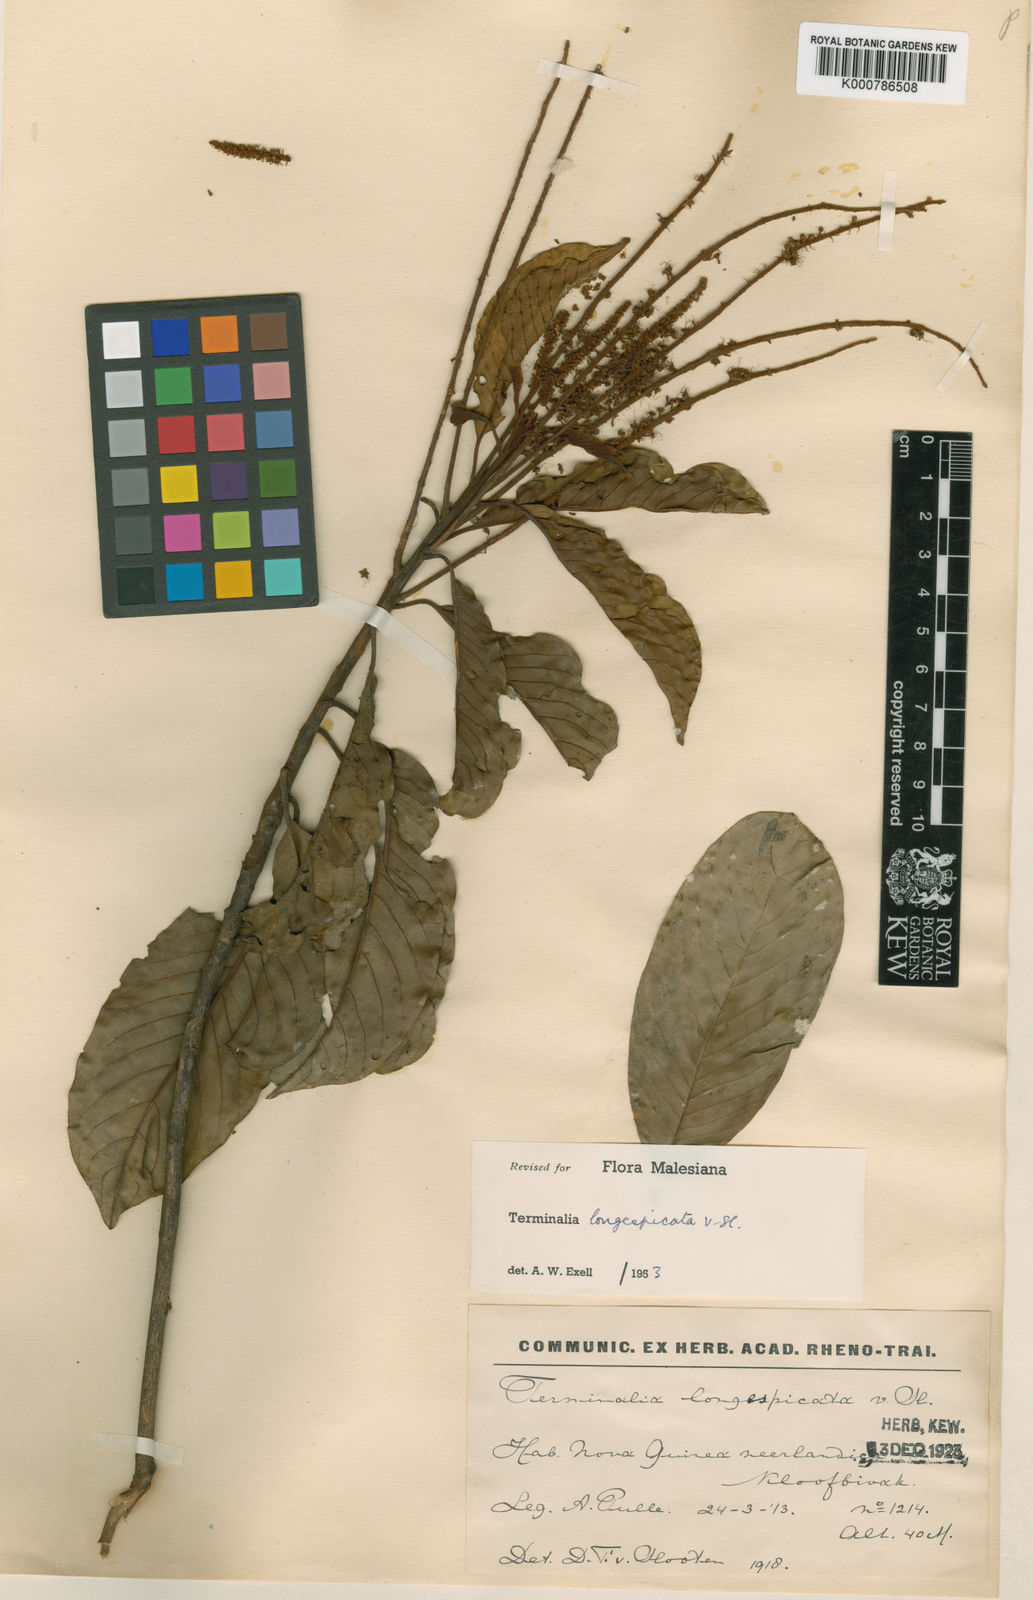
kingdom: Plantae
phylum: Tracheophyta
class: Magnoliopsida
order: Myrtales
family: Combretaceae
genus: Terminalia
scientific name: Terminalia longespicata
